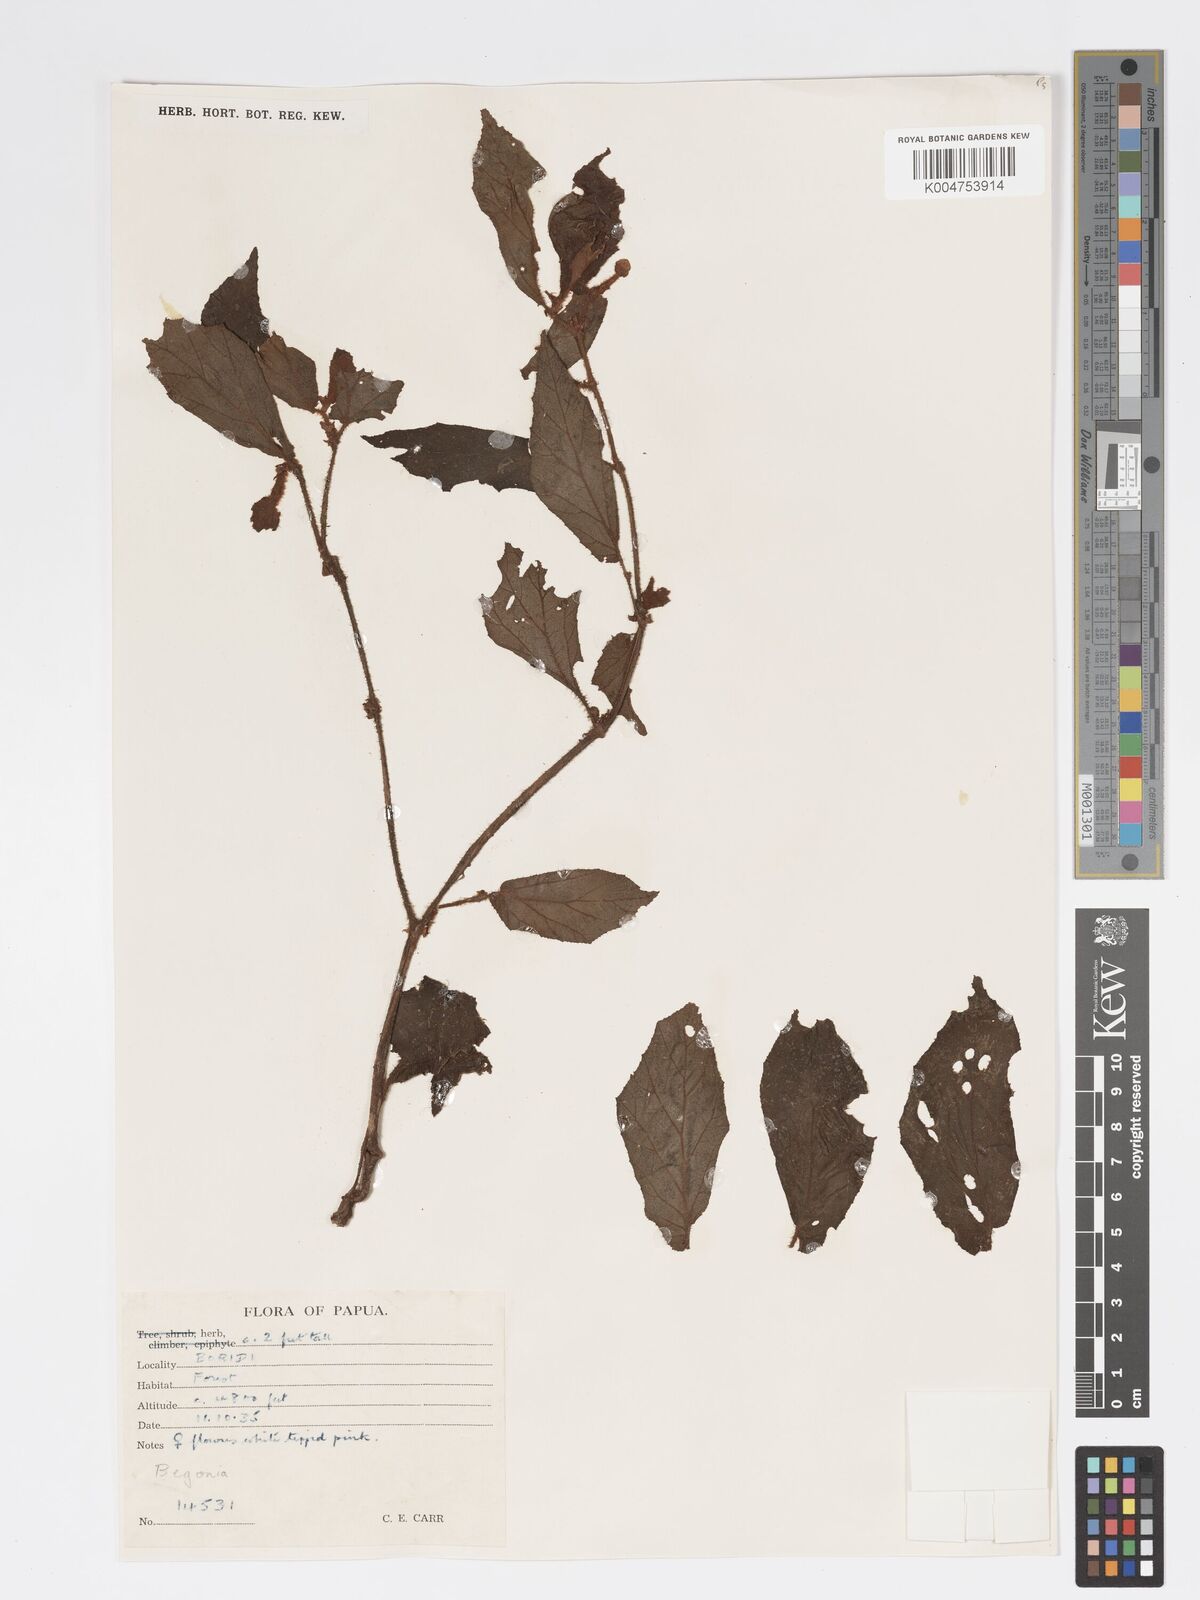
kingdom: Plantae
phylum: Tracheophyta
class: Magnoliopsida
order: Cucurbitales
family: Begoniaceae
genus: Begonia
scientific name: Begonia fruticella
